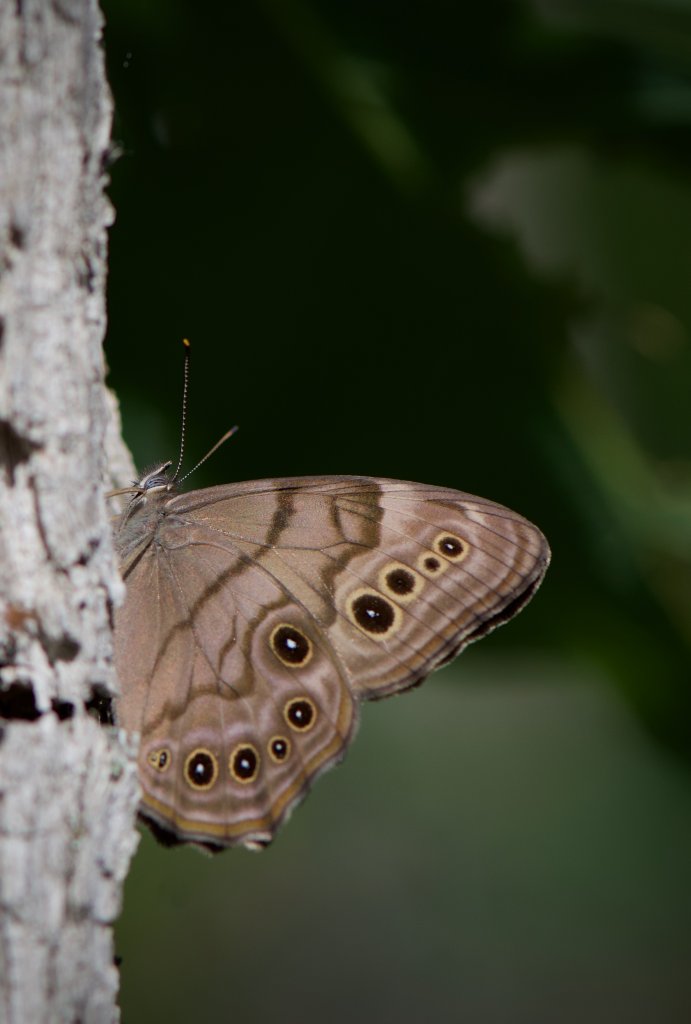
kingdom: Animalia
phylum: Arthropoda
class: Insecta
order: Lepidoptera
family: Nymphalidae
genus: Lethe
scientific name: Lethe anthedon
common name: Northern Pearly-Eye
